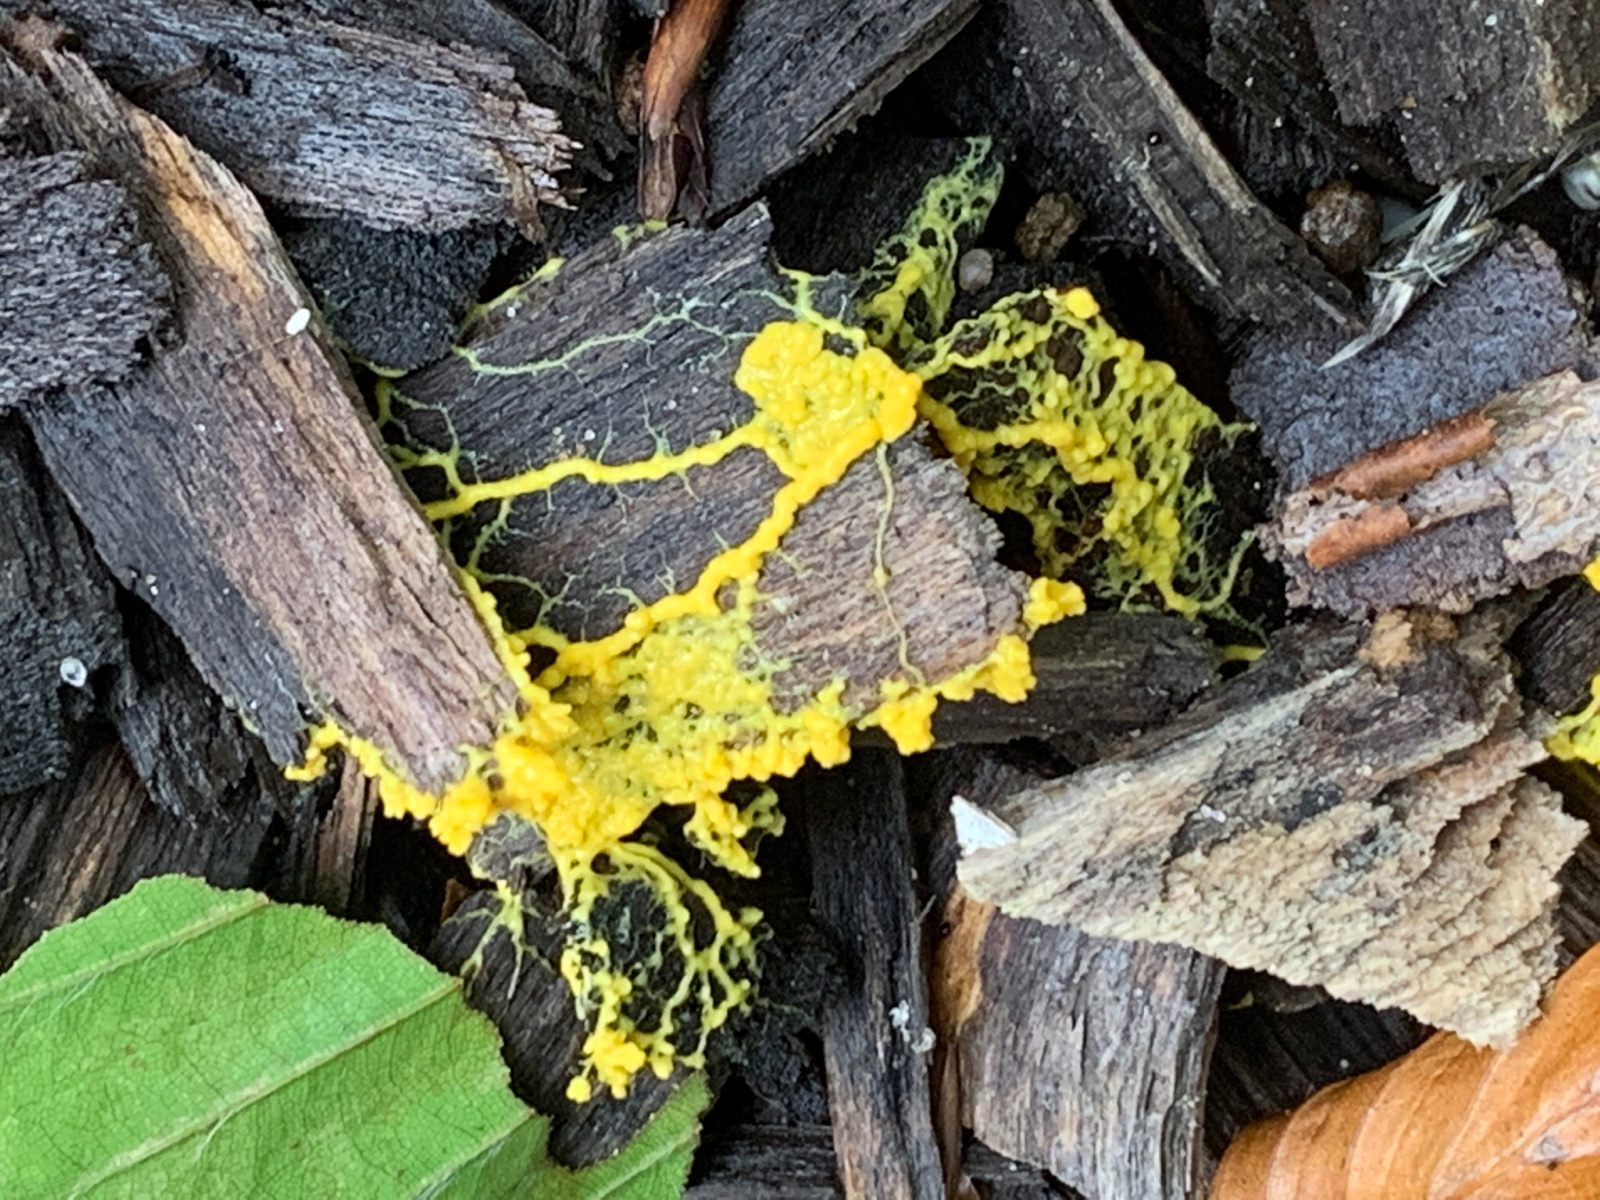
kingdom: Protozoa
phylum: Mycetozoa
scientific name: Mycetozoa
